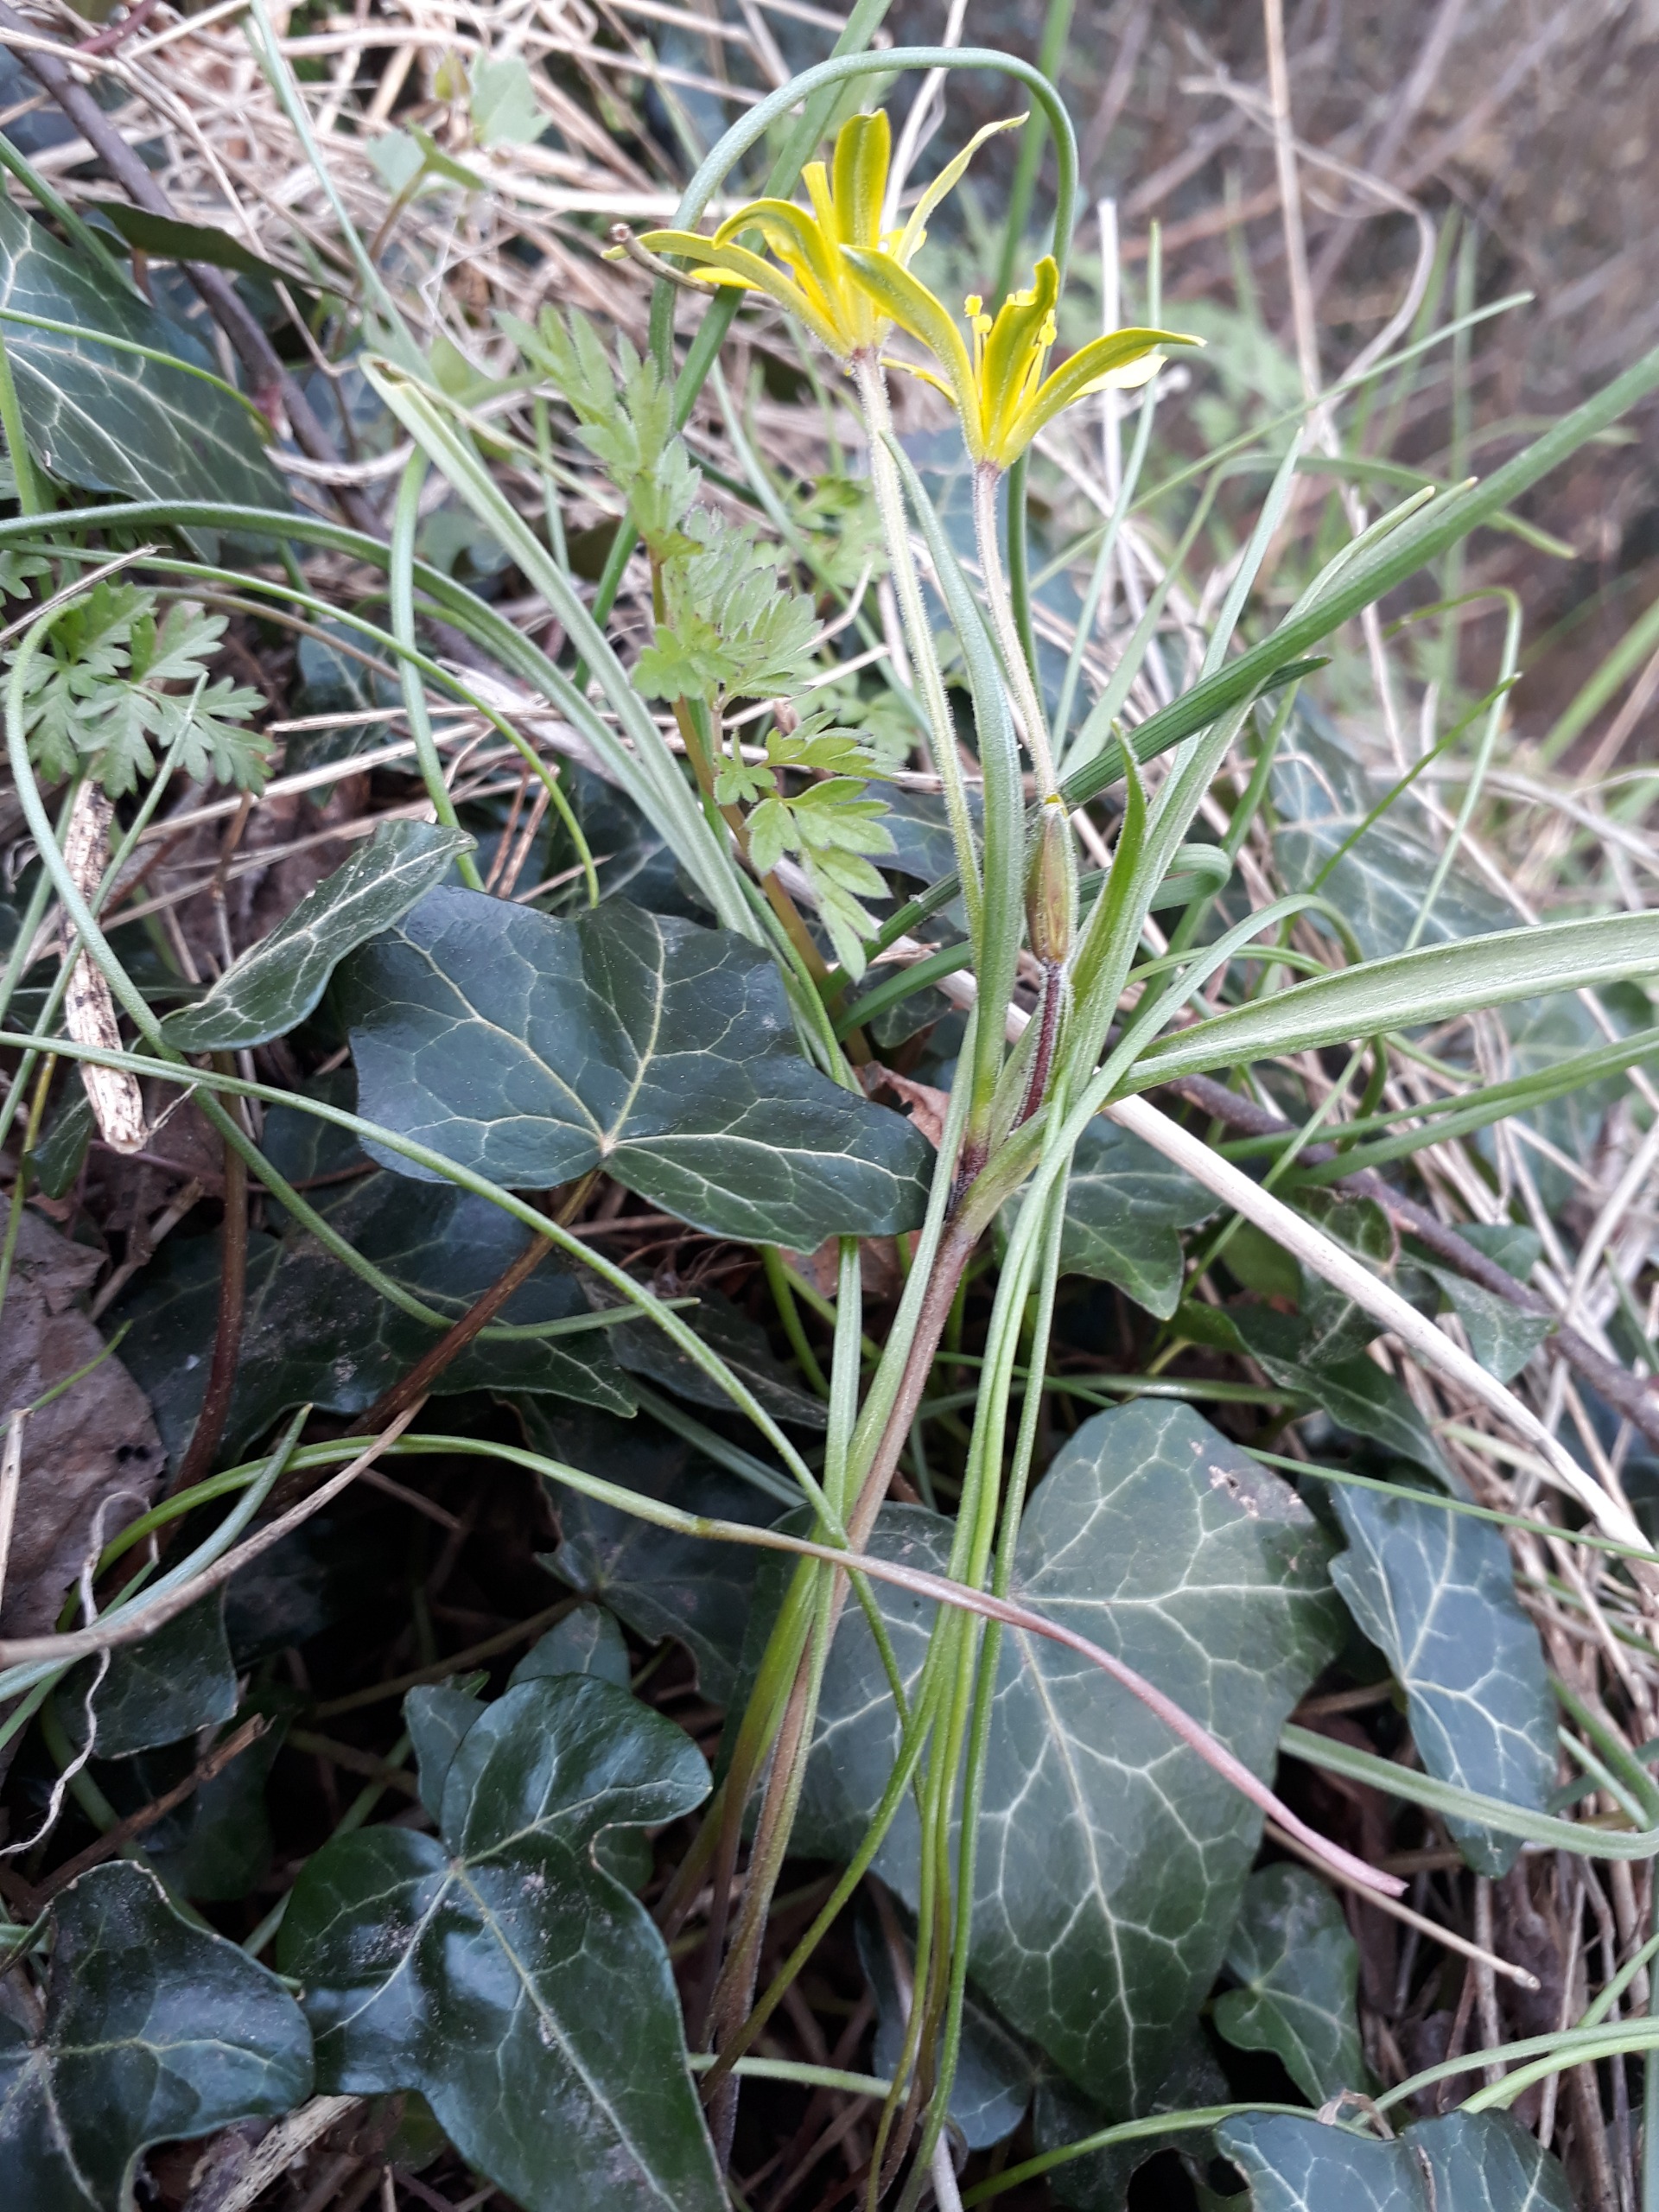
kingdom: Plantae
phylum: Tracheophyta
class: Liliopsida
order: Liliales
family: Liliaceae
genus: Gagea
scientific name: Gagea villosa
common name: Ager-guldstjerne
